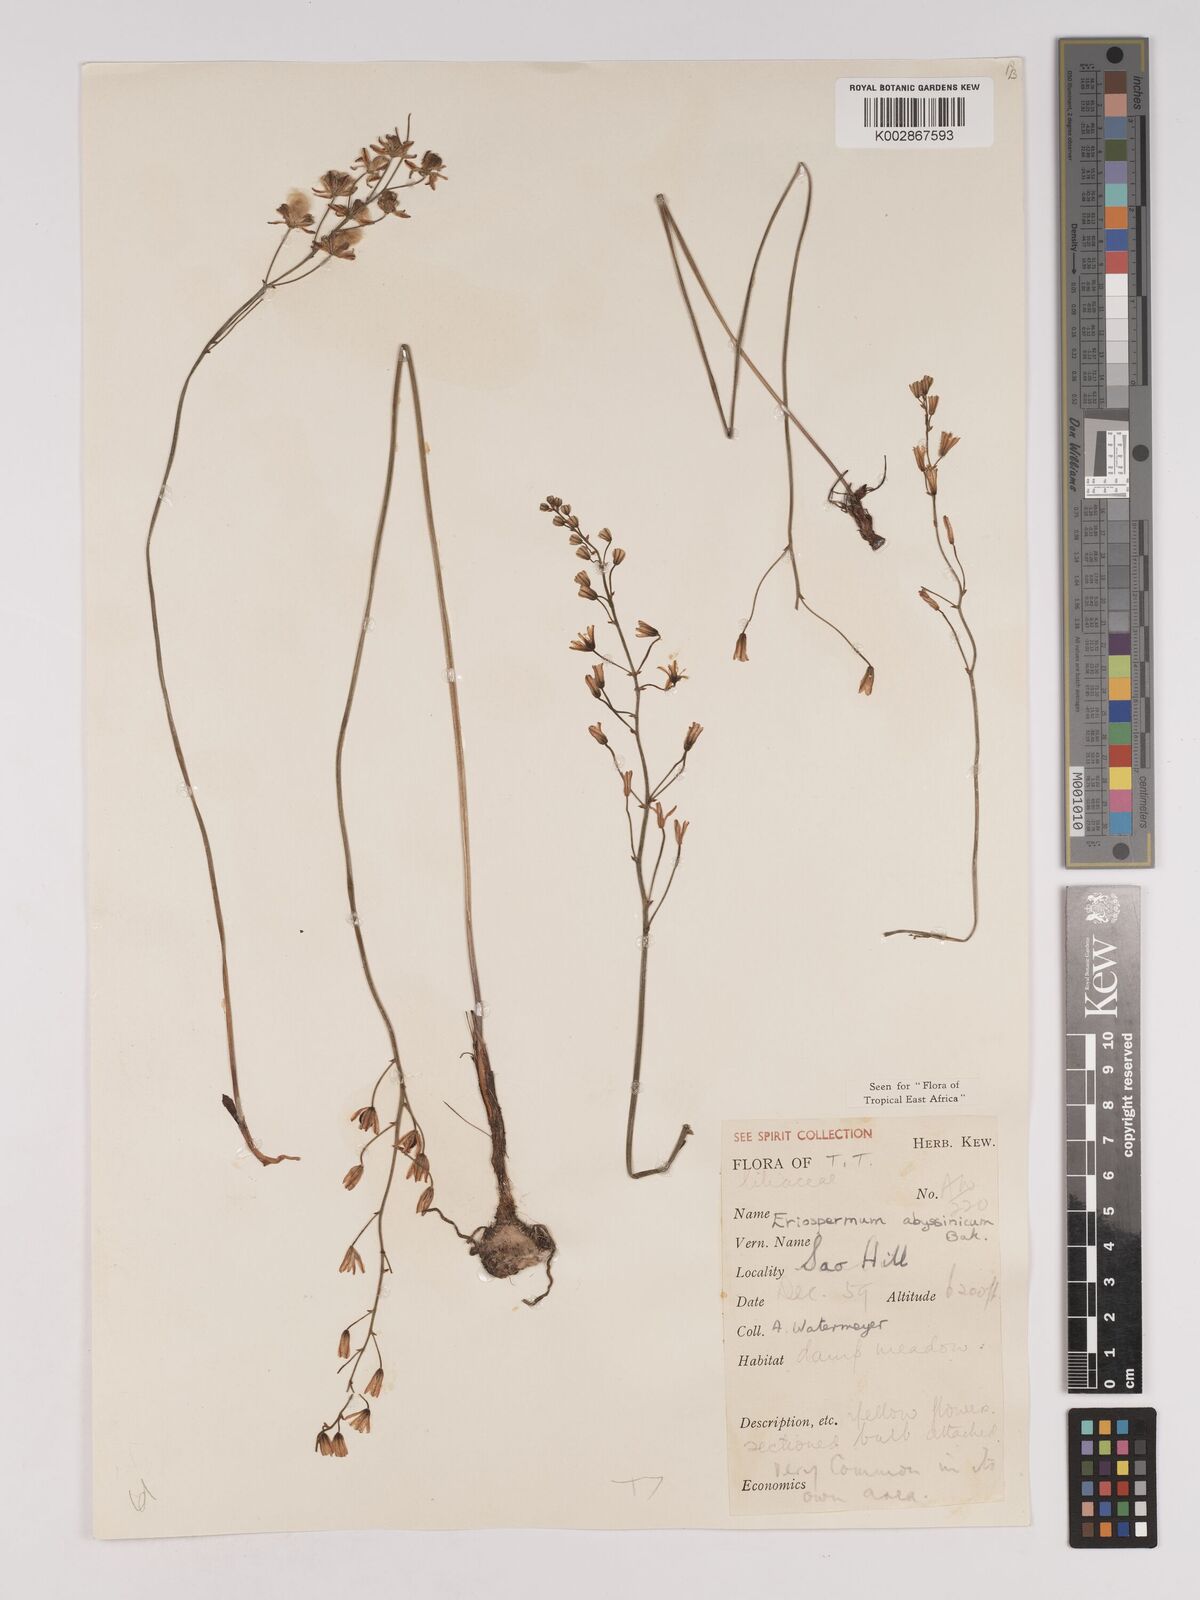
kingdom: Plantae
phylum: Tracheophyta
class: Liliopsida
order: Asparagales
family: Asparagaceae
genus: Eriospermum
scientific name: Eriospermum abyssinicum
